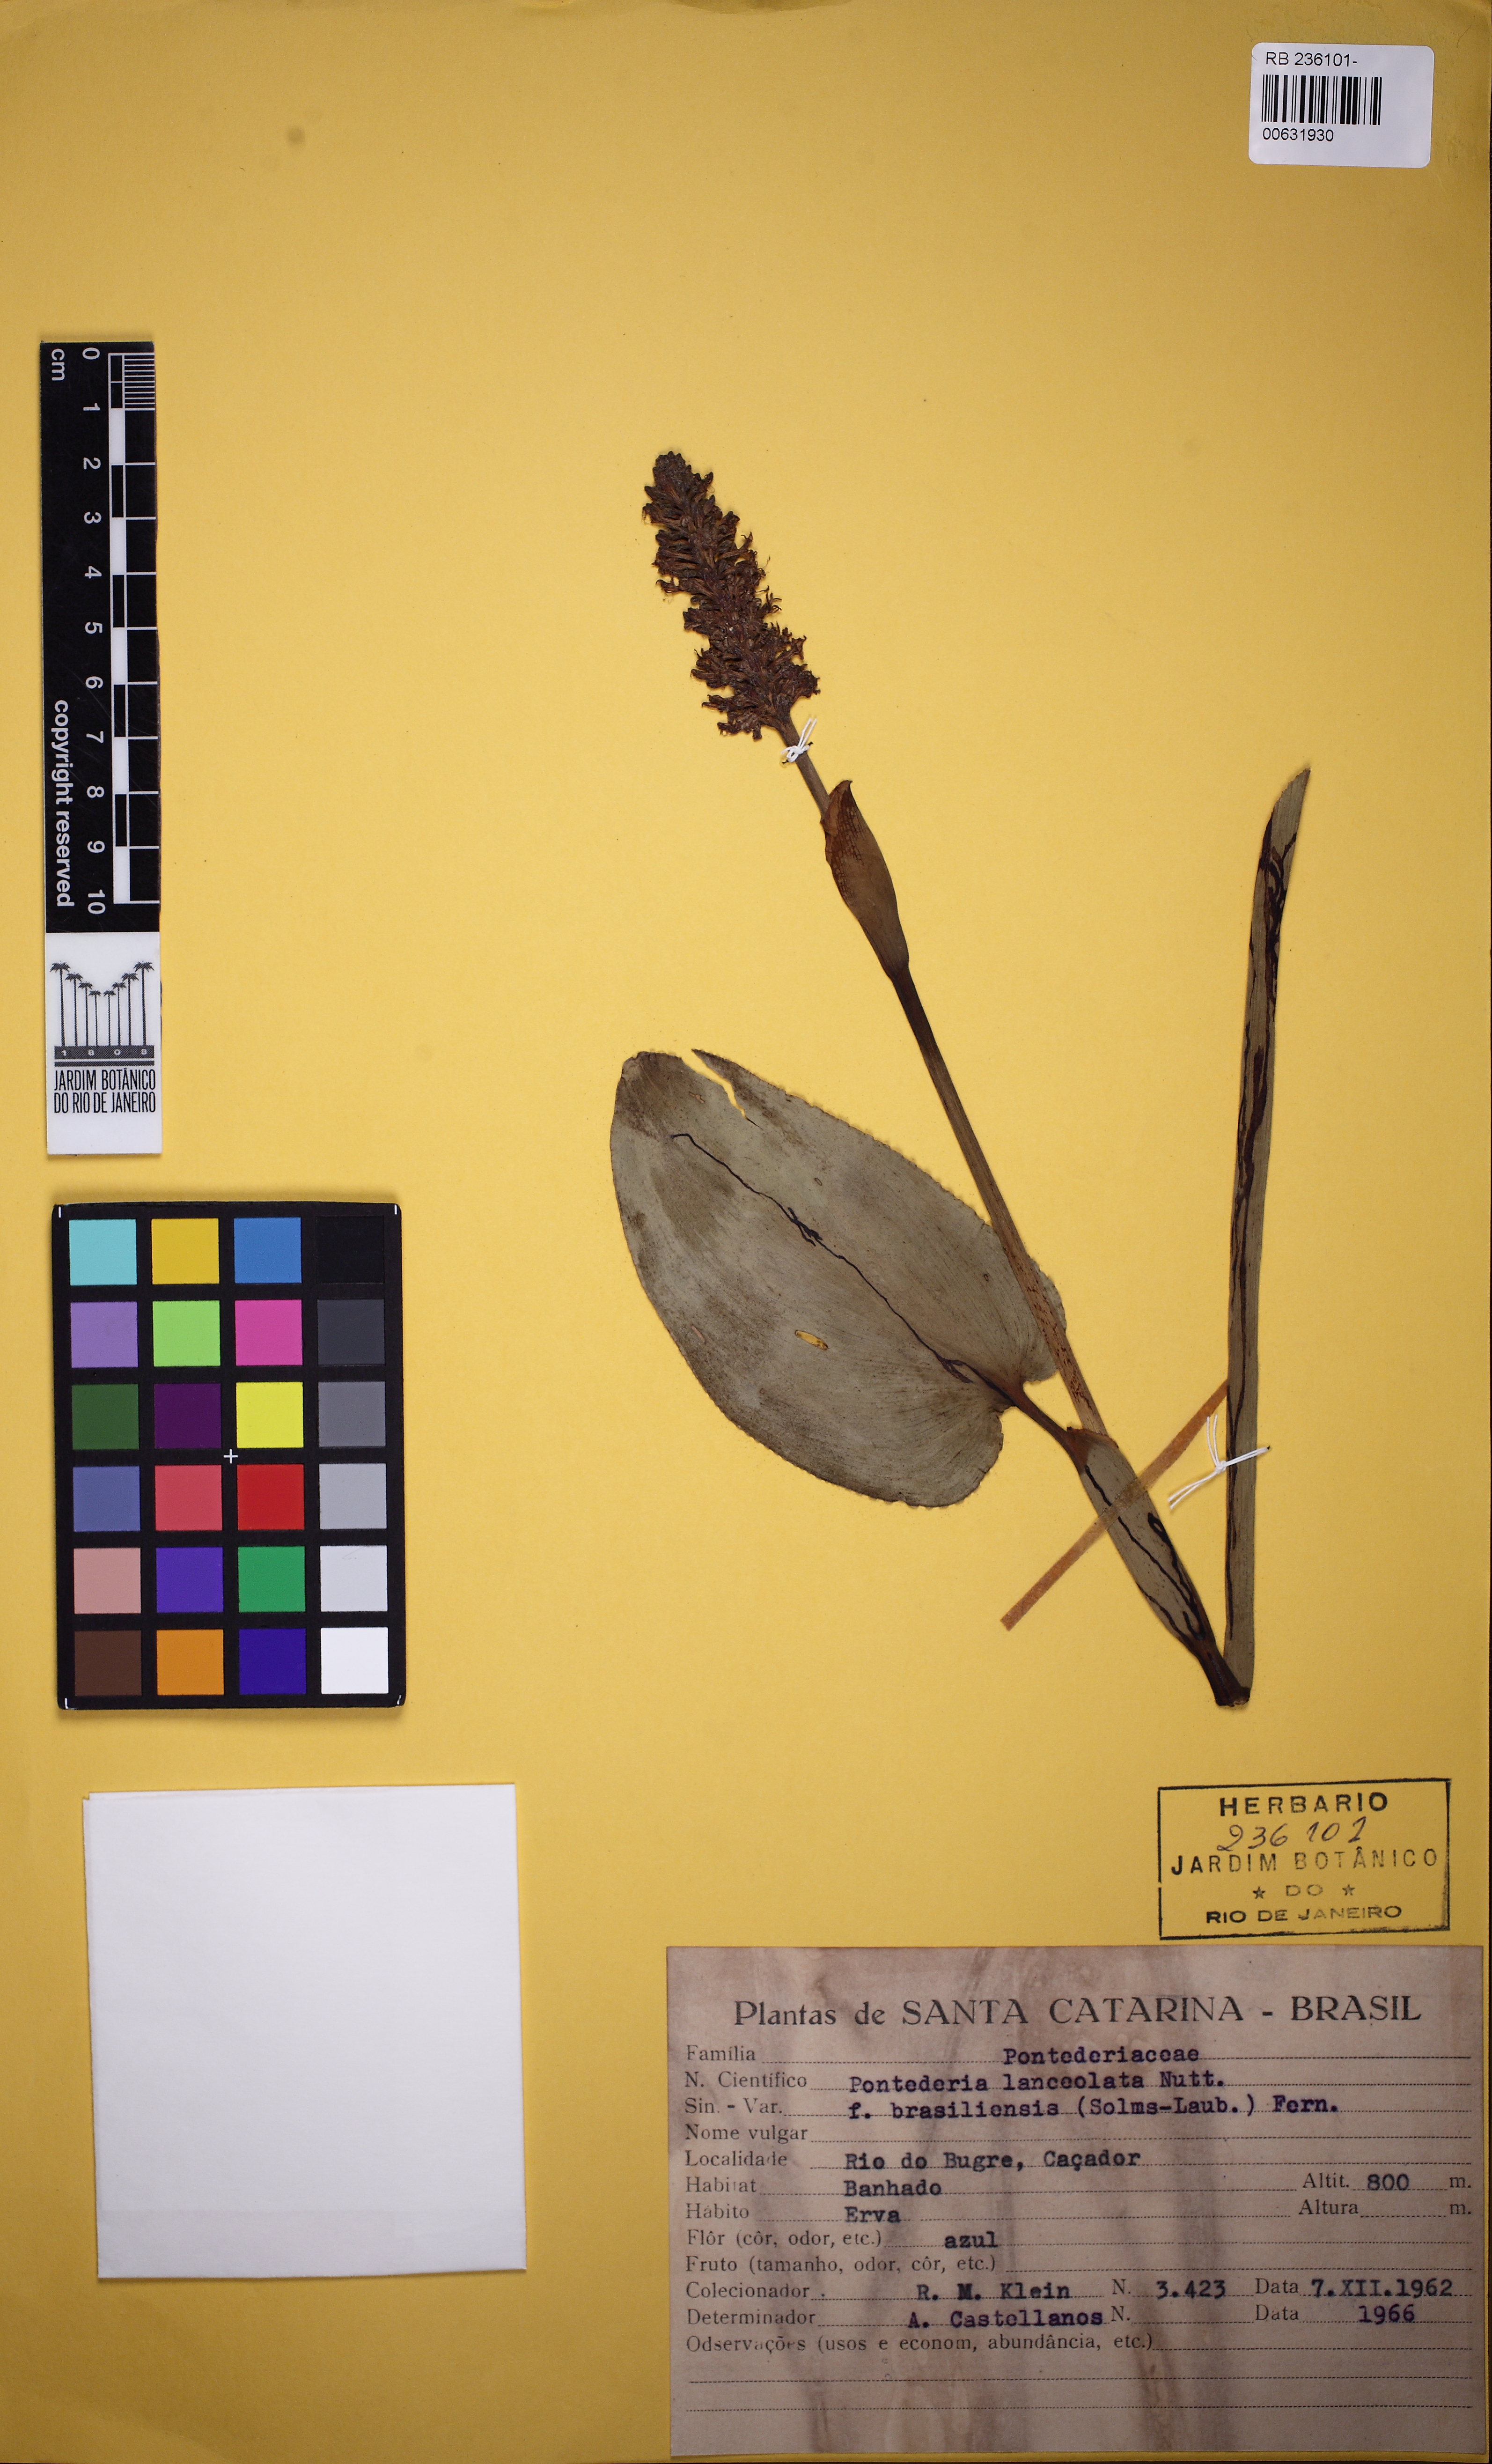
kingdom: Plantae
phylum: Tracheophyta
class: Liliopsida
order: Commelinales
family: Pontederiaceae
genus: Pontederia
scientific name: Pontederia cordata
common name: Pickerelweed
